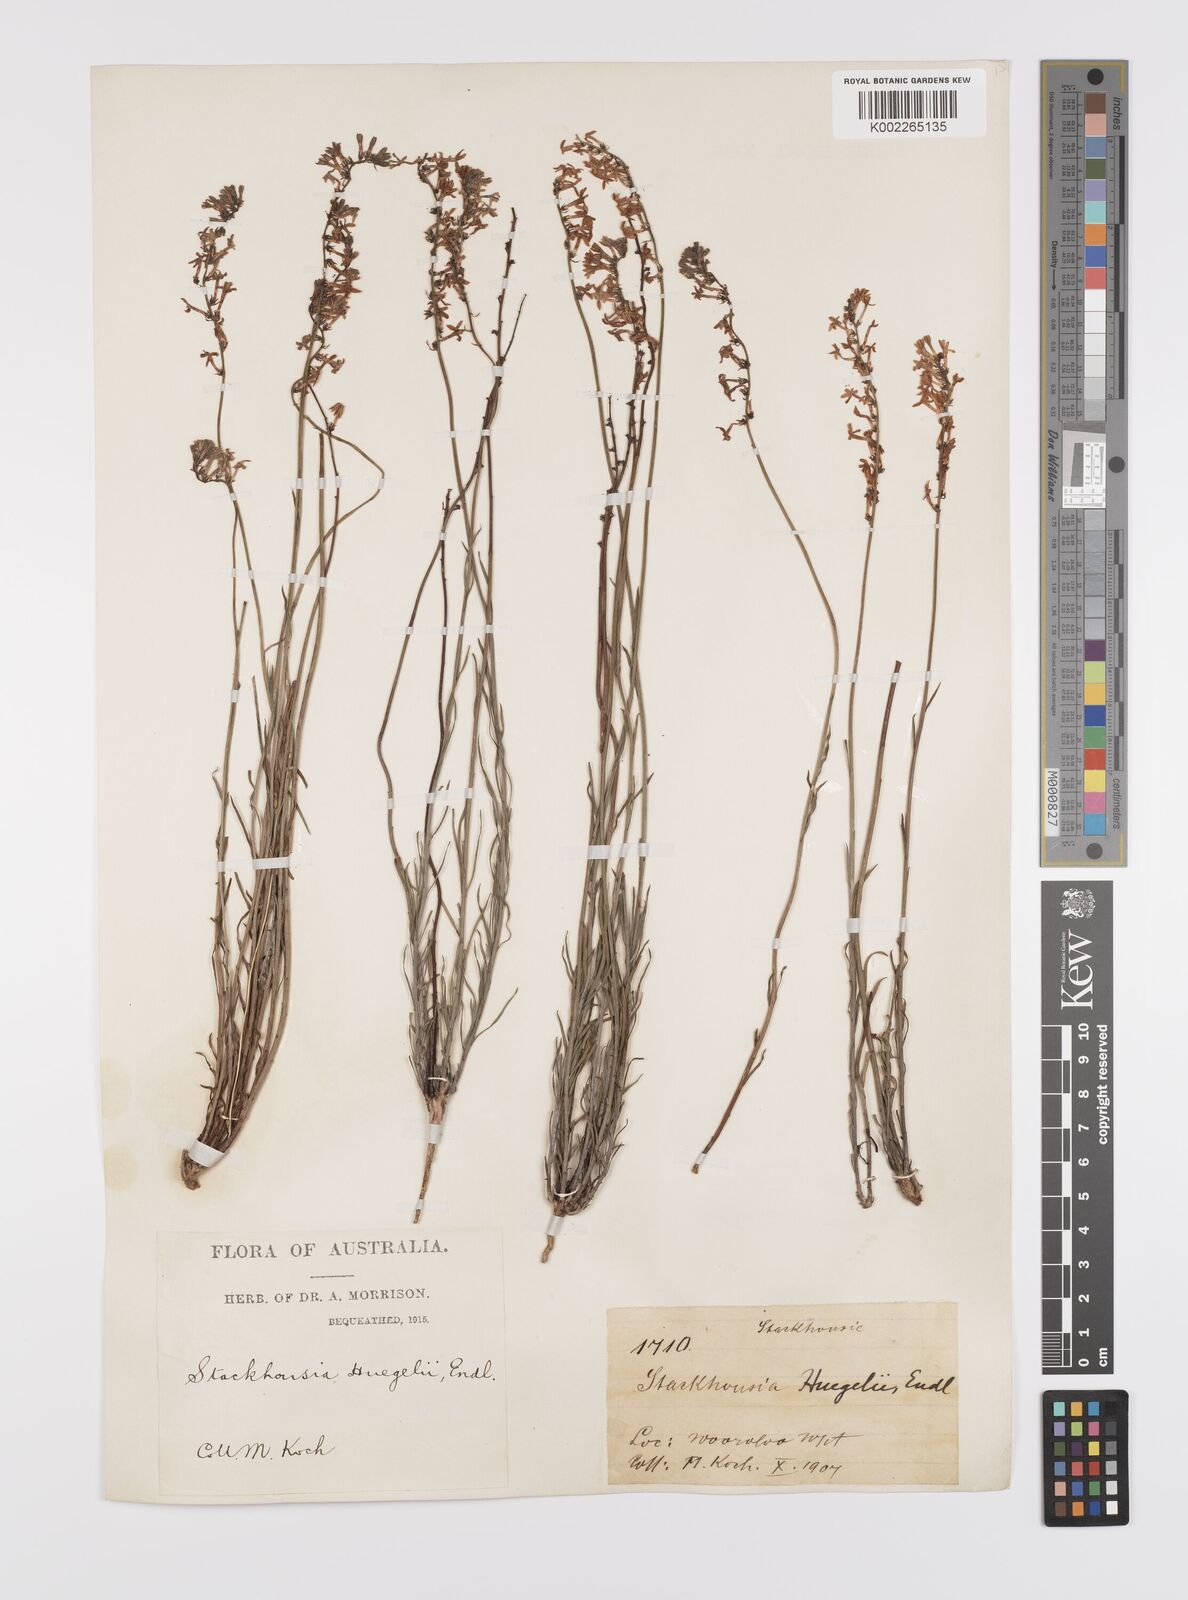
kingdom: Plantae
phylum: Tracheophyta
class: Magnoliopsida
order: Celastrales
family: Celastraceae
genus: Stackhousia
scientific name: Stackhousia monogyna
